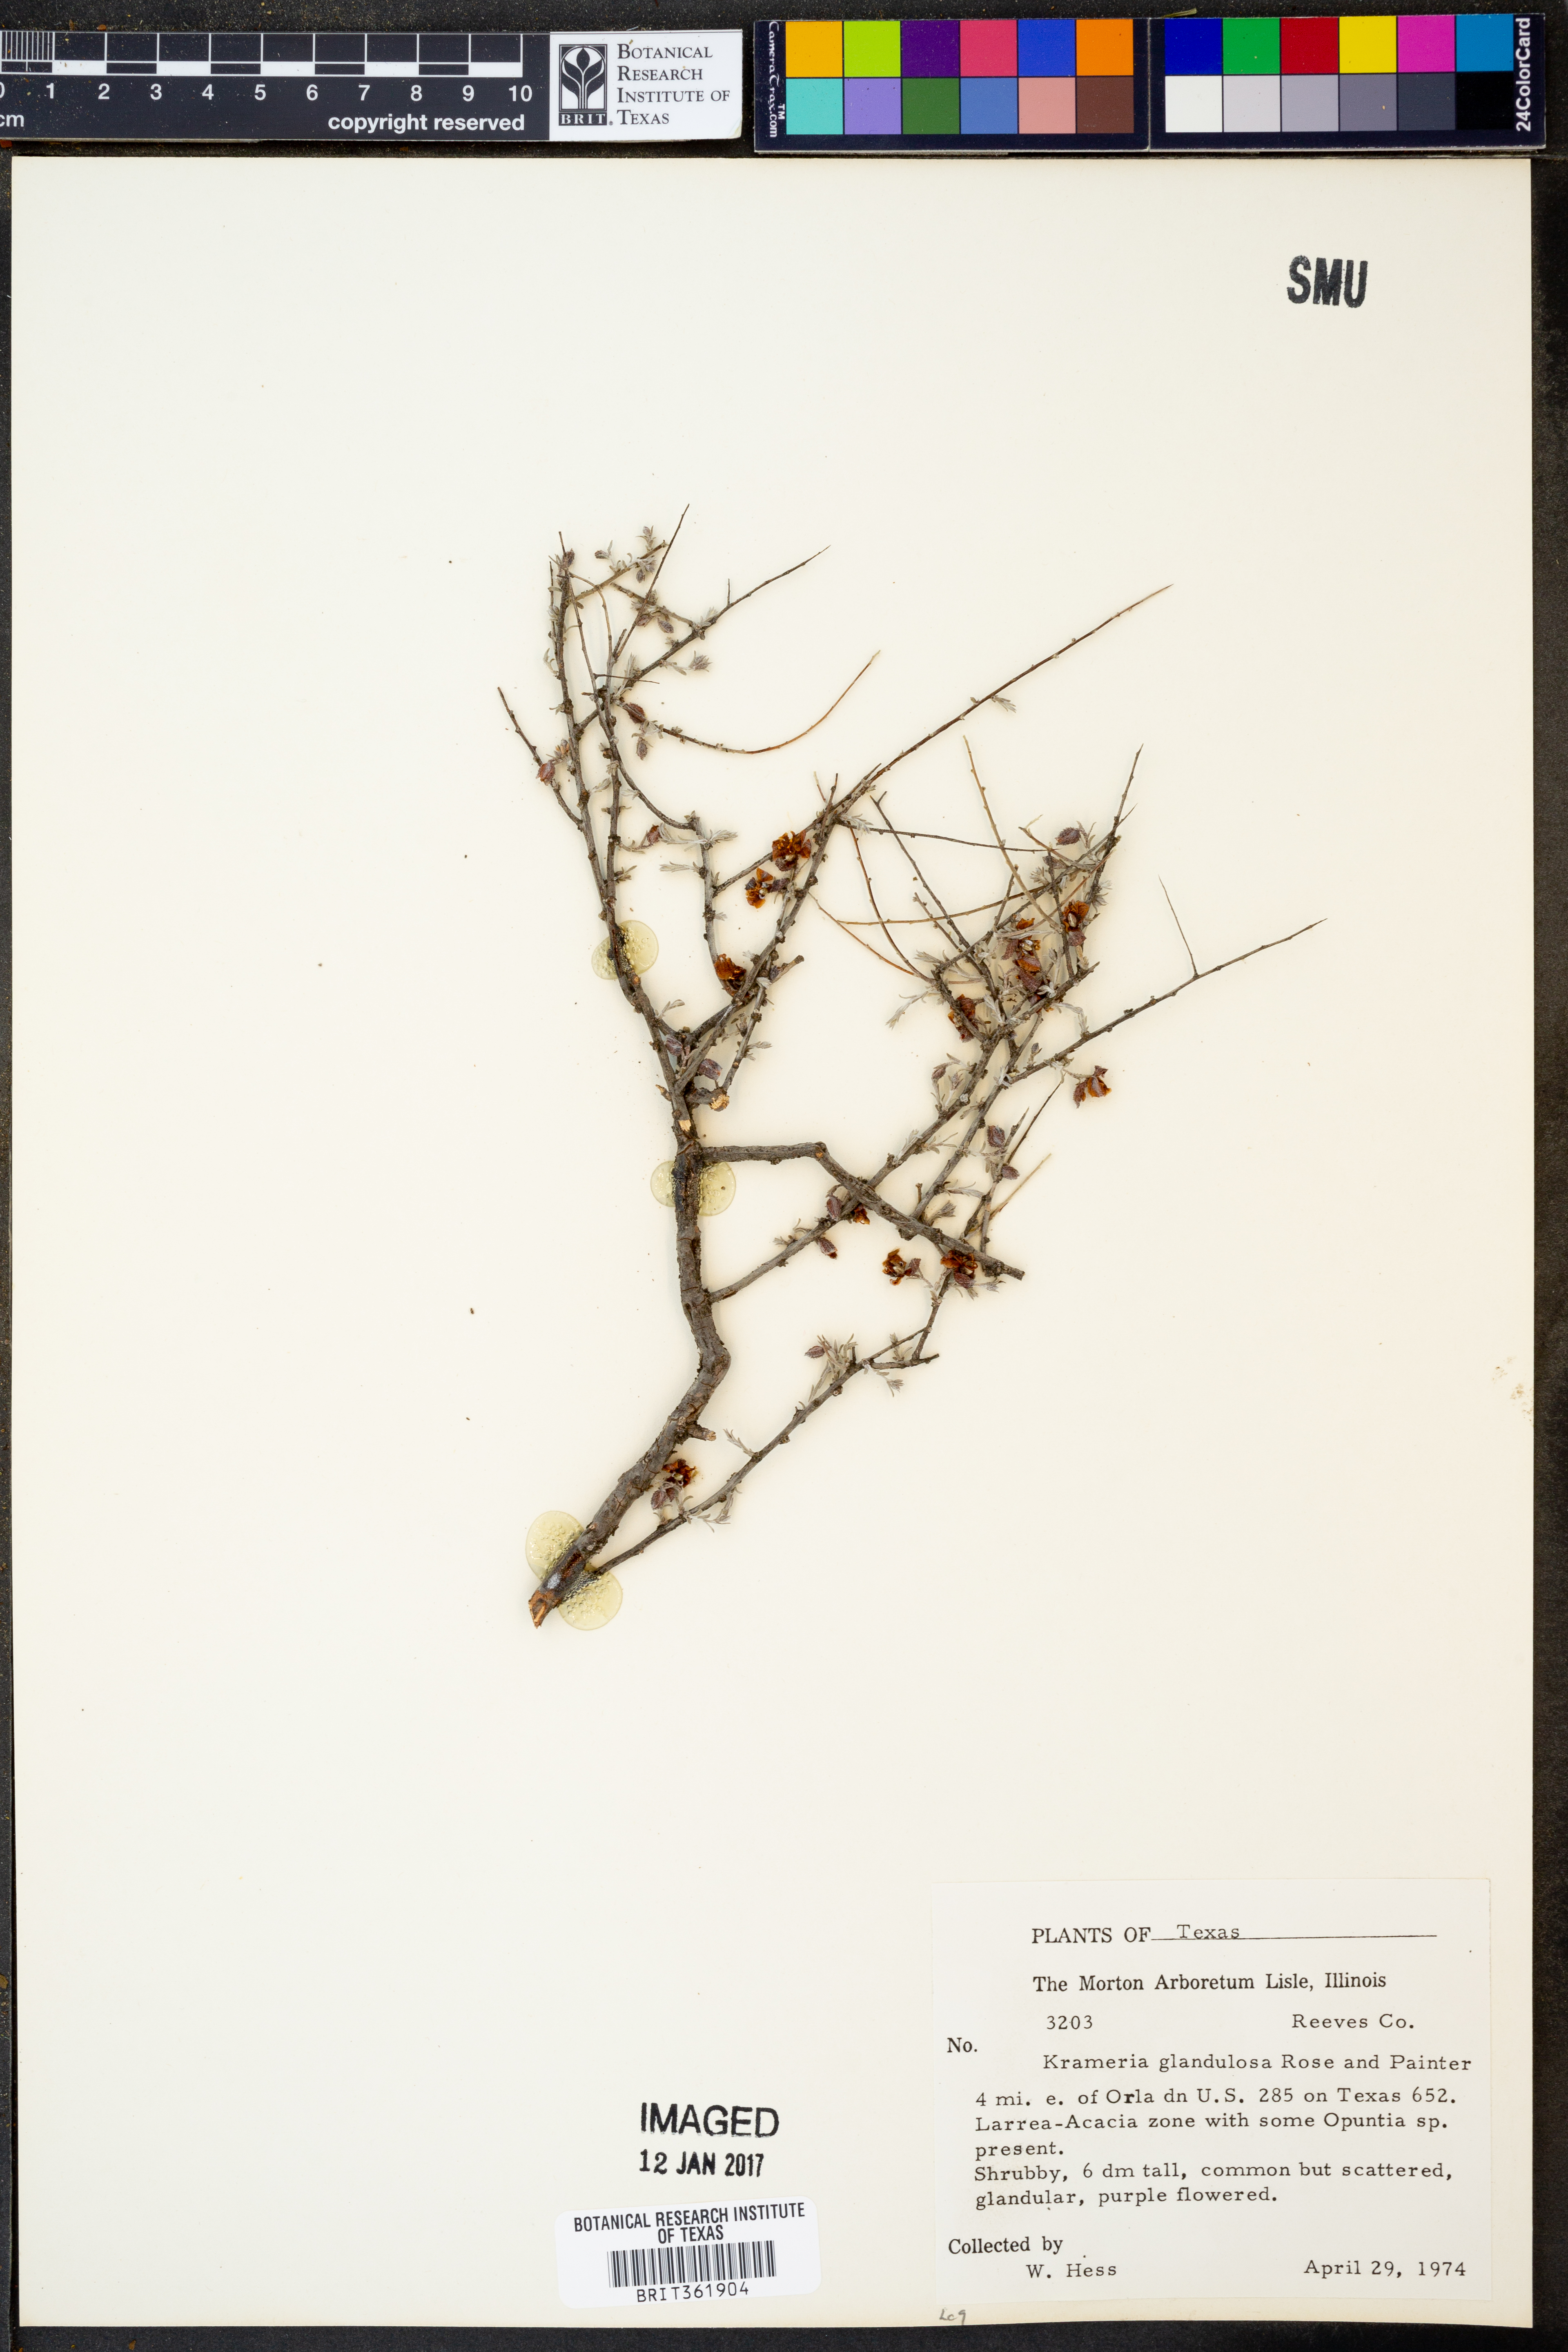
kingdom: Plantae
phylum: Tracheophyta
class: Magnoliopsida
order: Zygophyllales
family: Krameriaceae
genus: Krameria
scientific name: Krameria erecta
